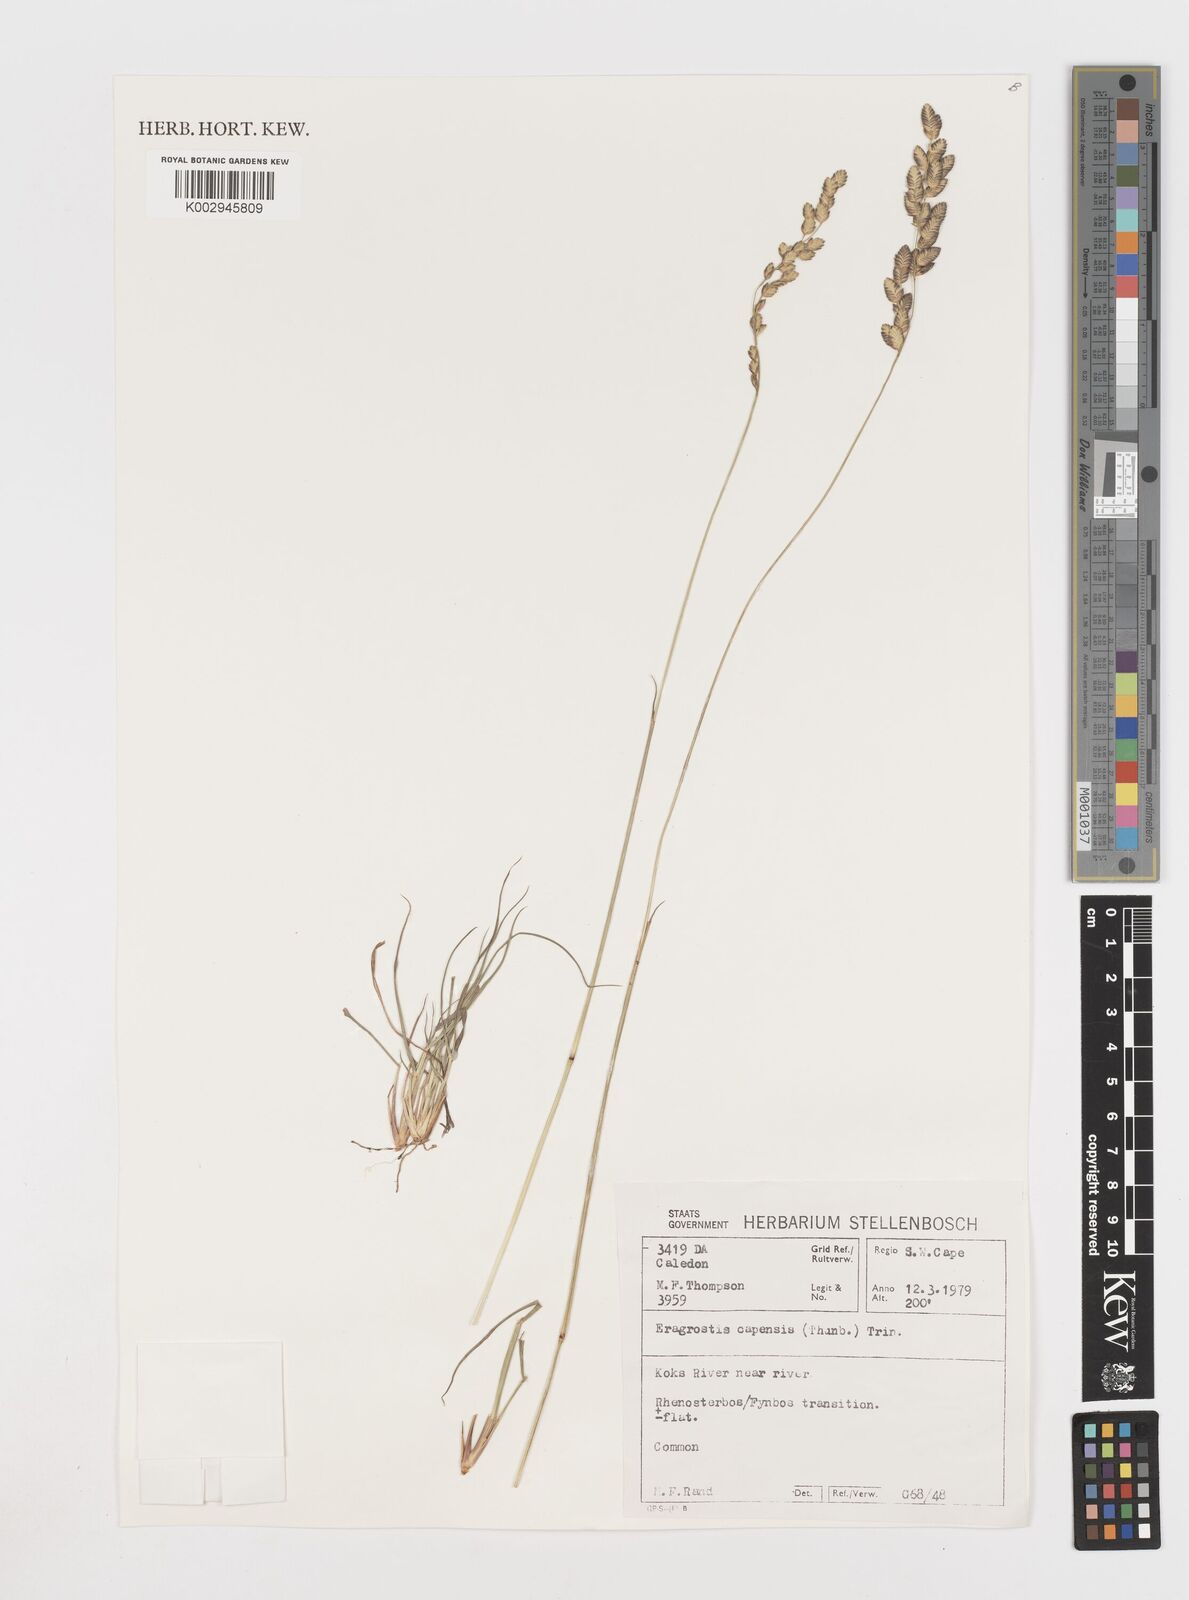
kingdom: Plantae
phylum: Tracheophyta
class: Liliopsida
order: Poales
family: Poaceae
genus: Eragrostis
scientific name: Eragrostis capensis
